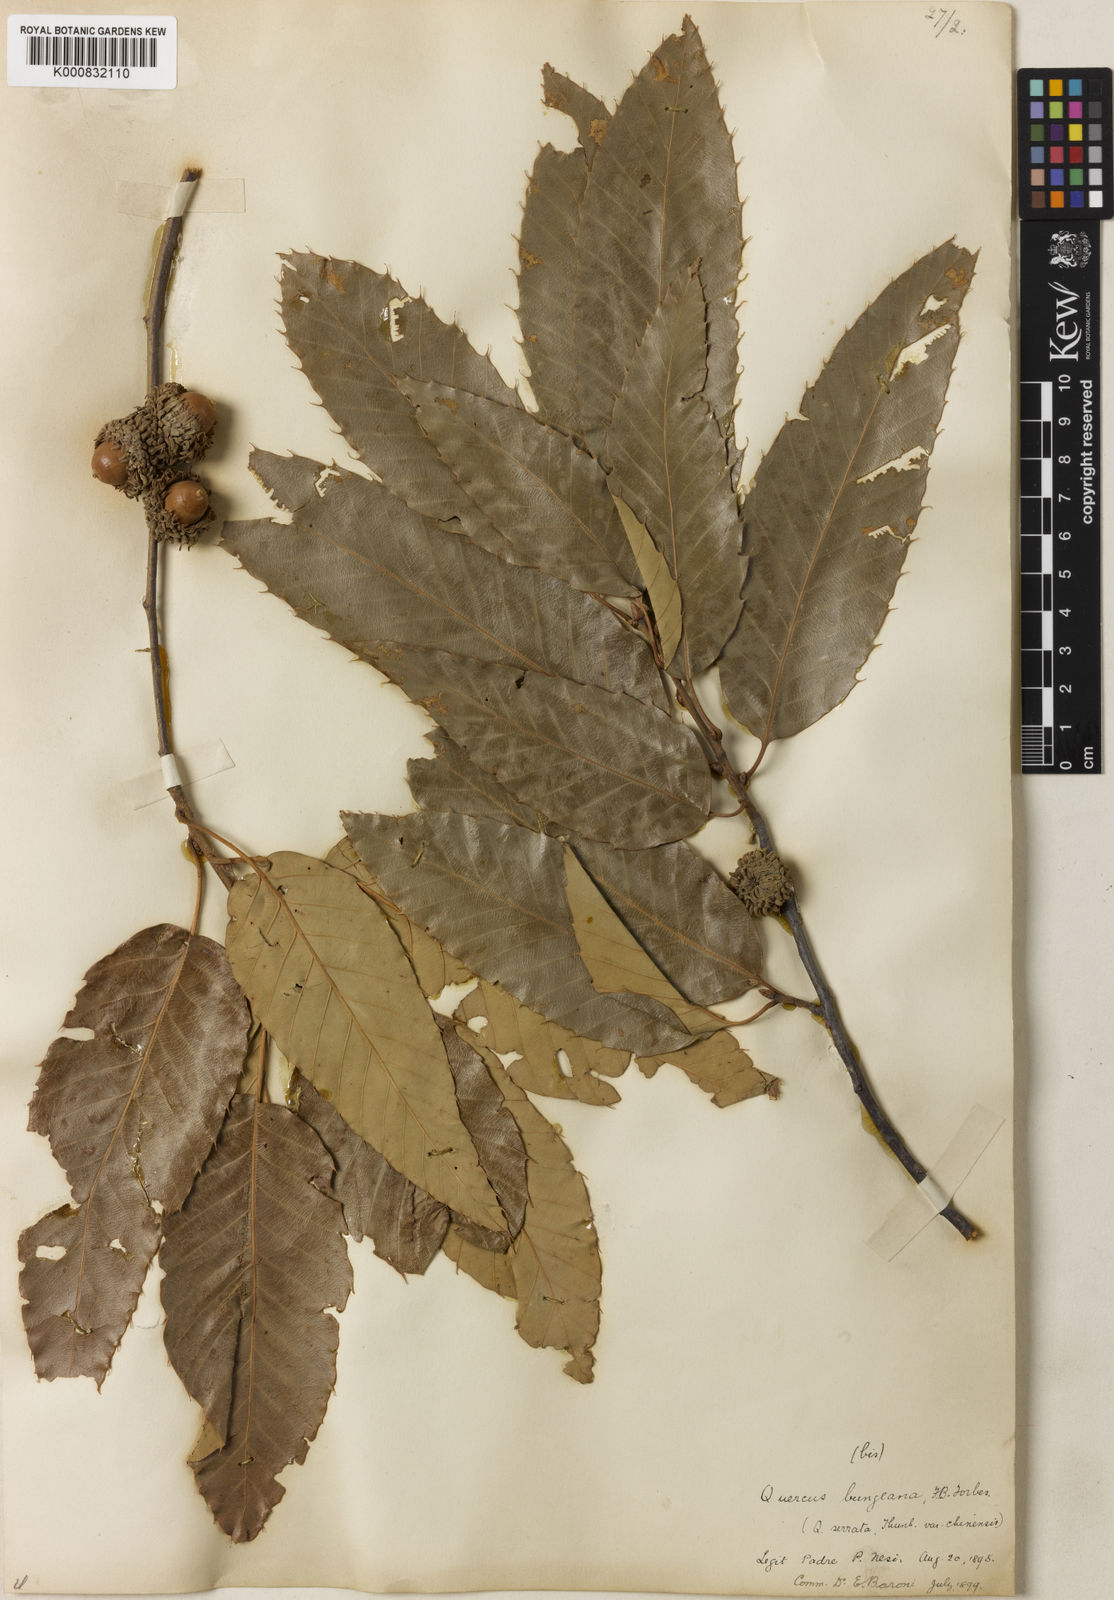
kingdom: Plantae
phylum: Tracheophyta
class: Magnoliopsida
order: Fagales
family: Fagaceae
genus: Quercus
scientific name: Quercus variabilis
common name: Chinese cork oak
